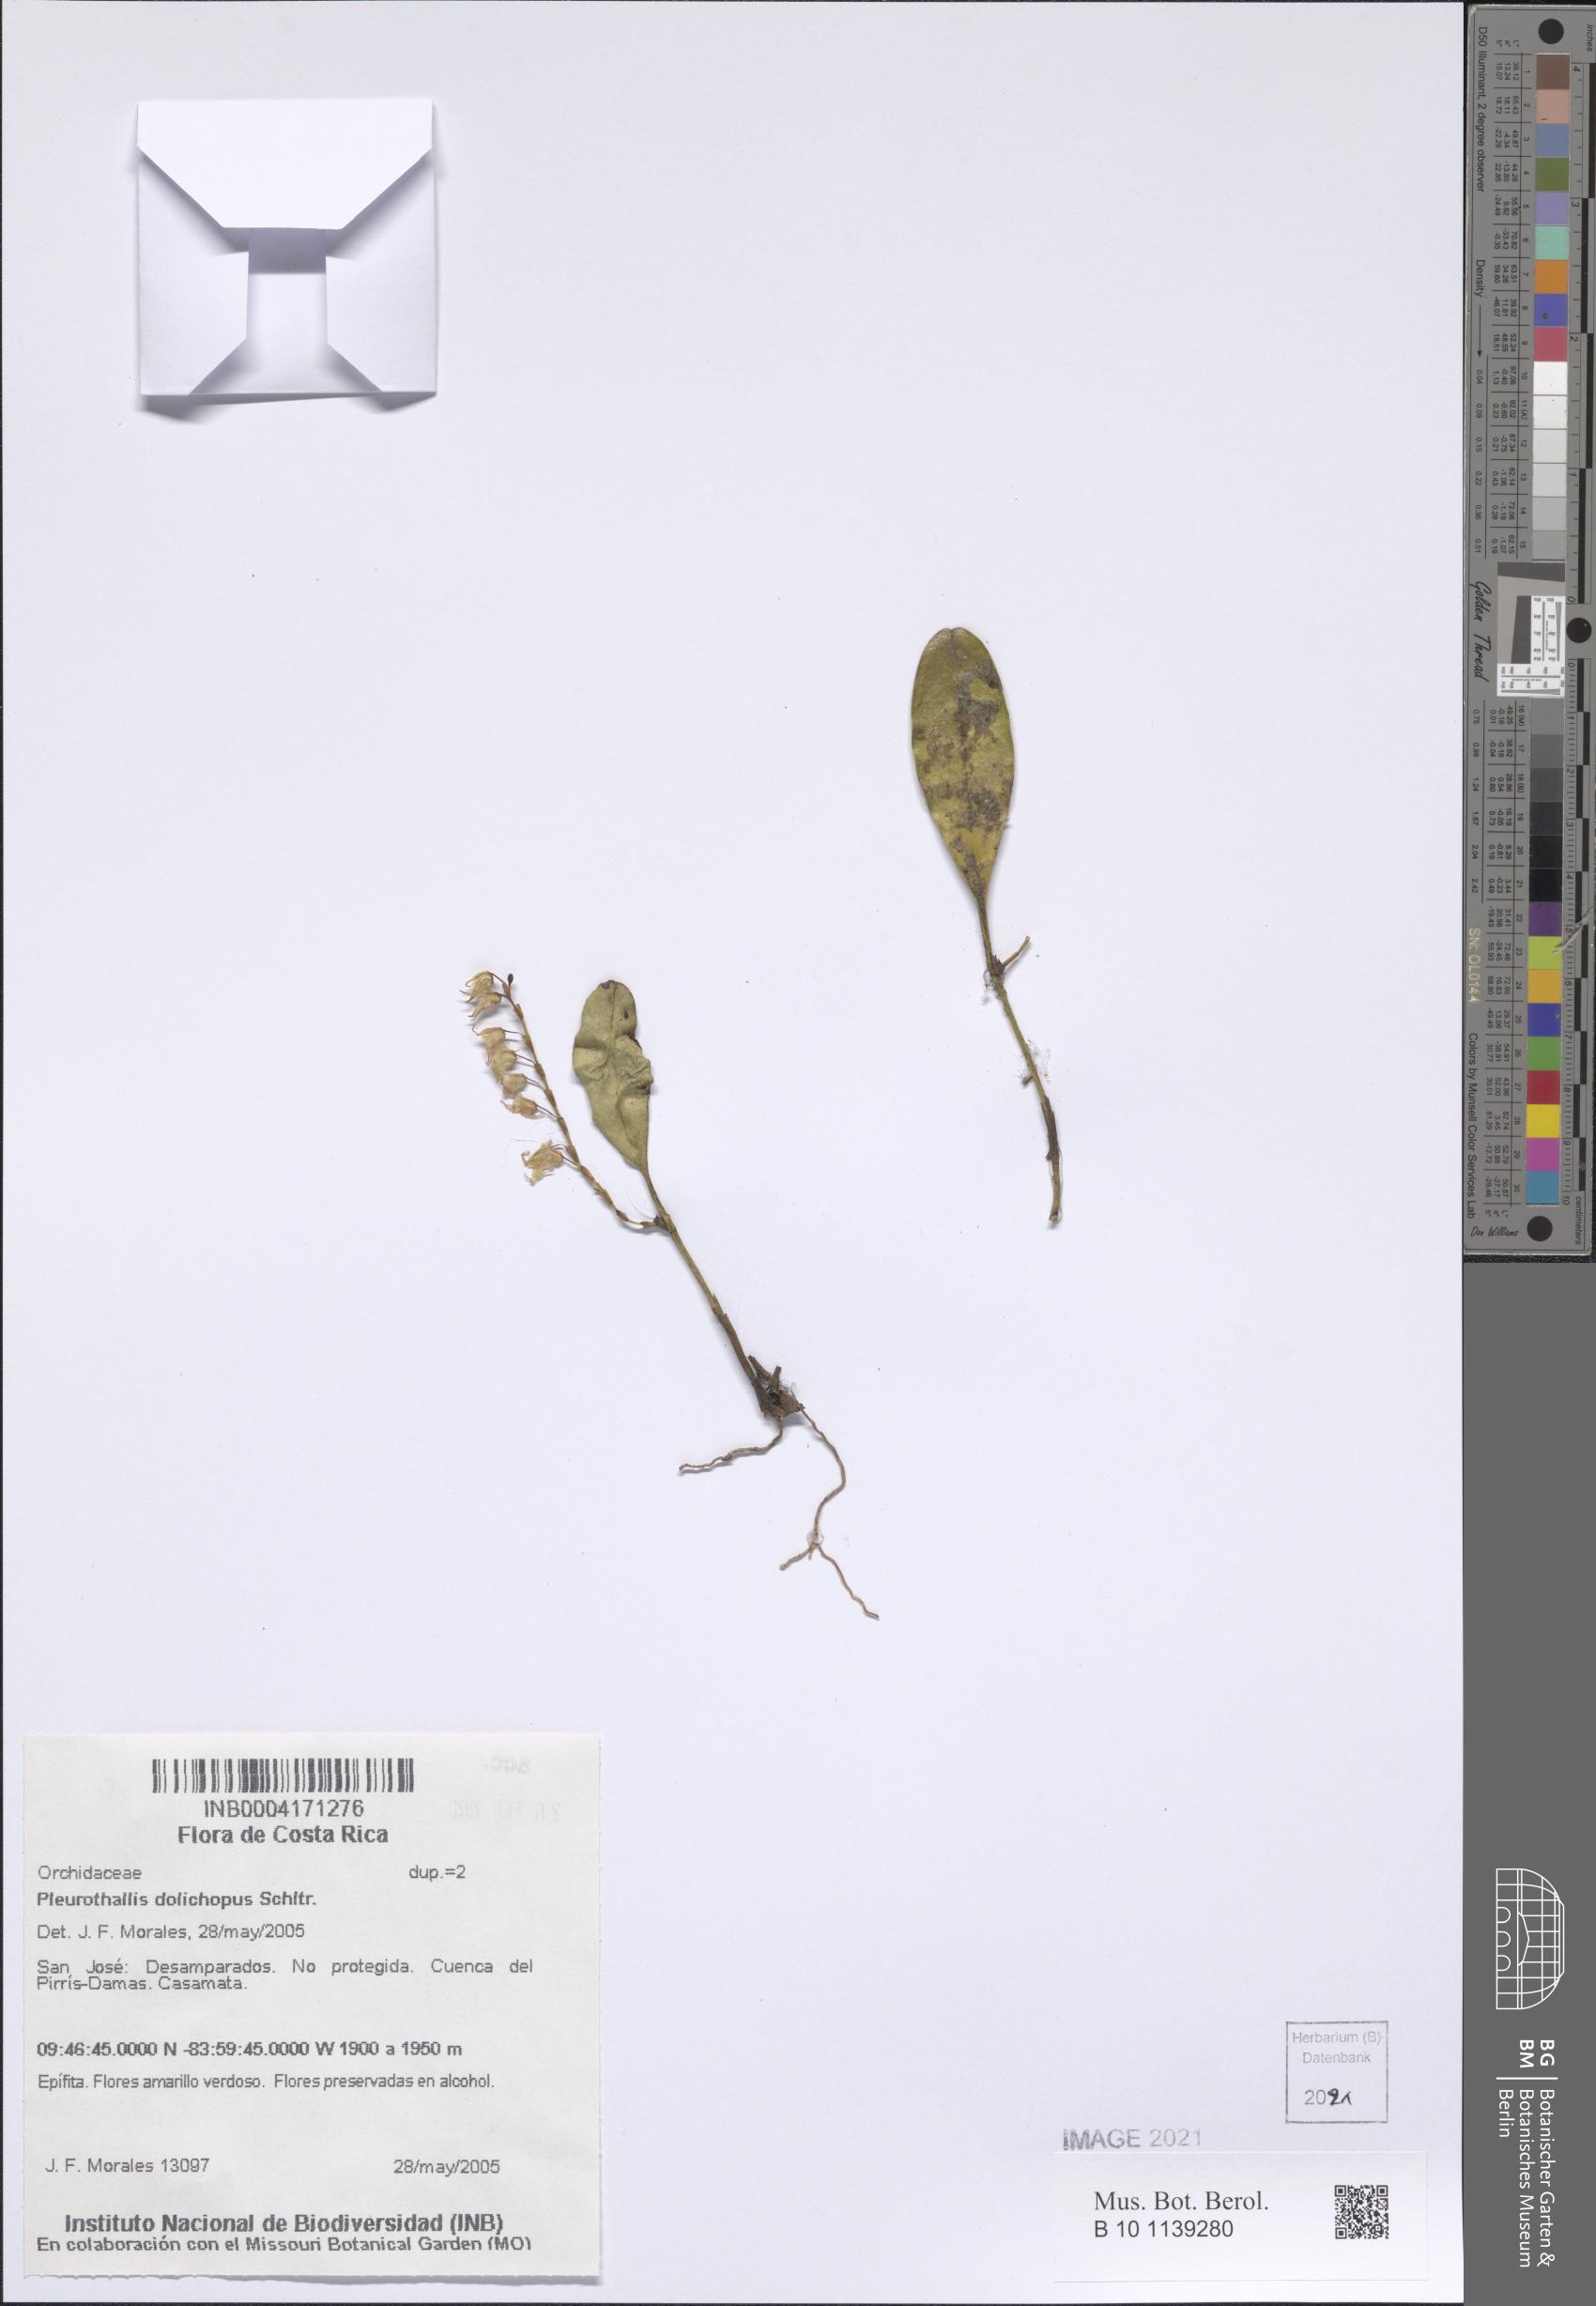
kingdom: Plantae
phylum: Tracheophyta
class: Liliopsida
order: Asparagales
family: Orchidaceae
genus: Stelis
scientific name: Stelis poasensis
